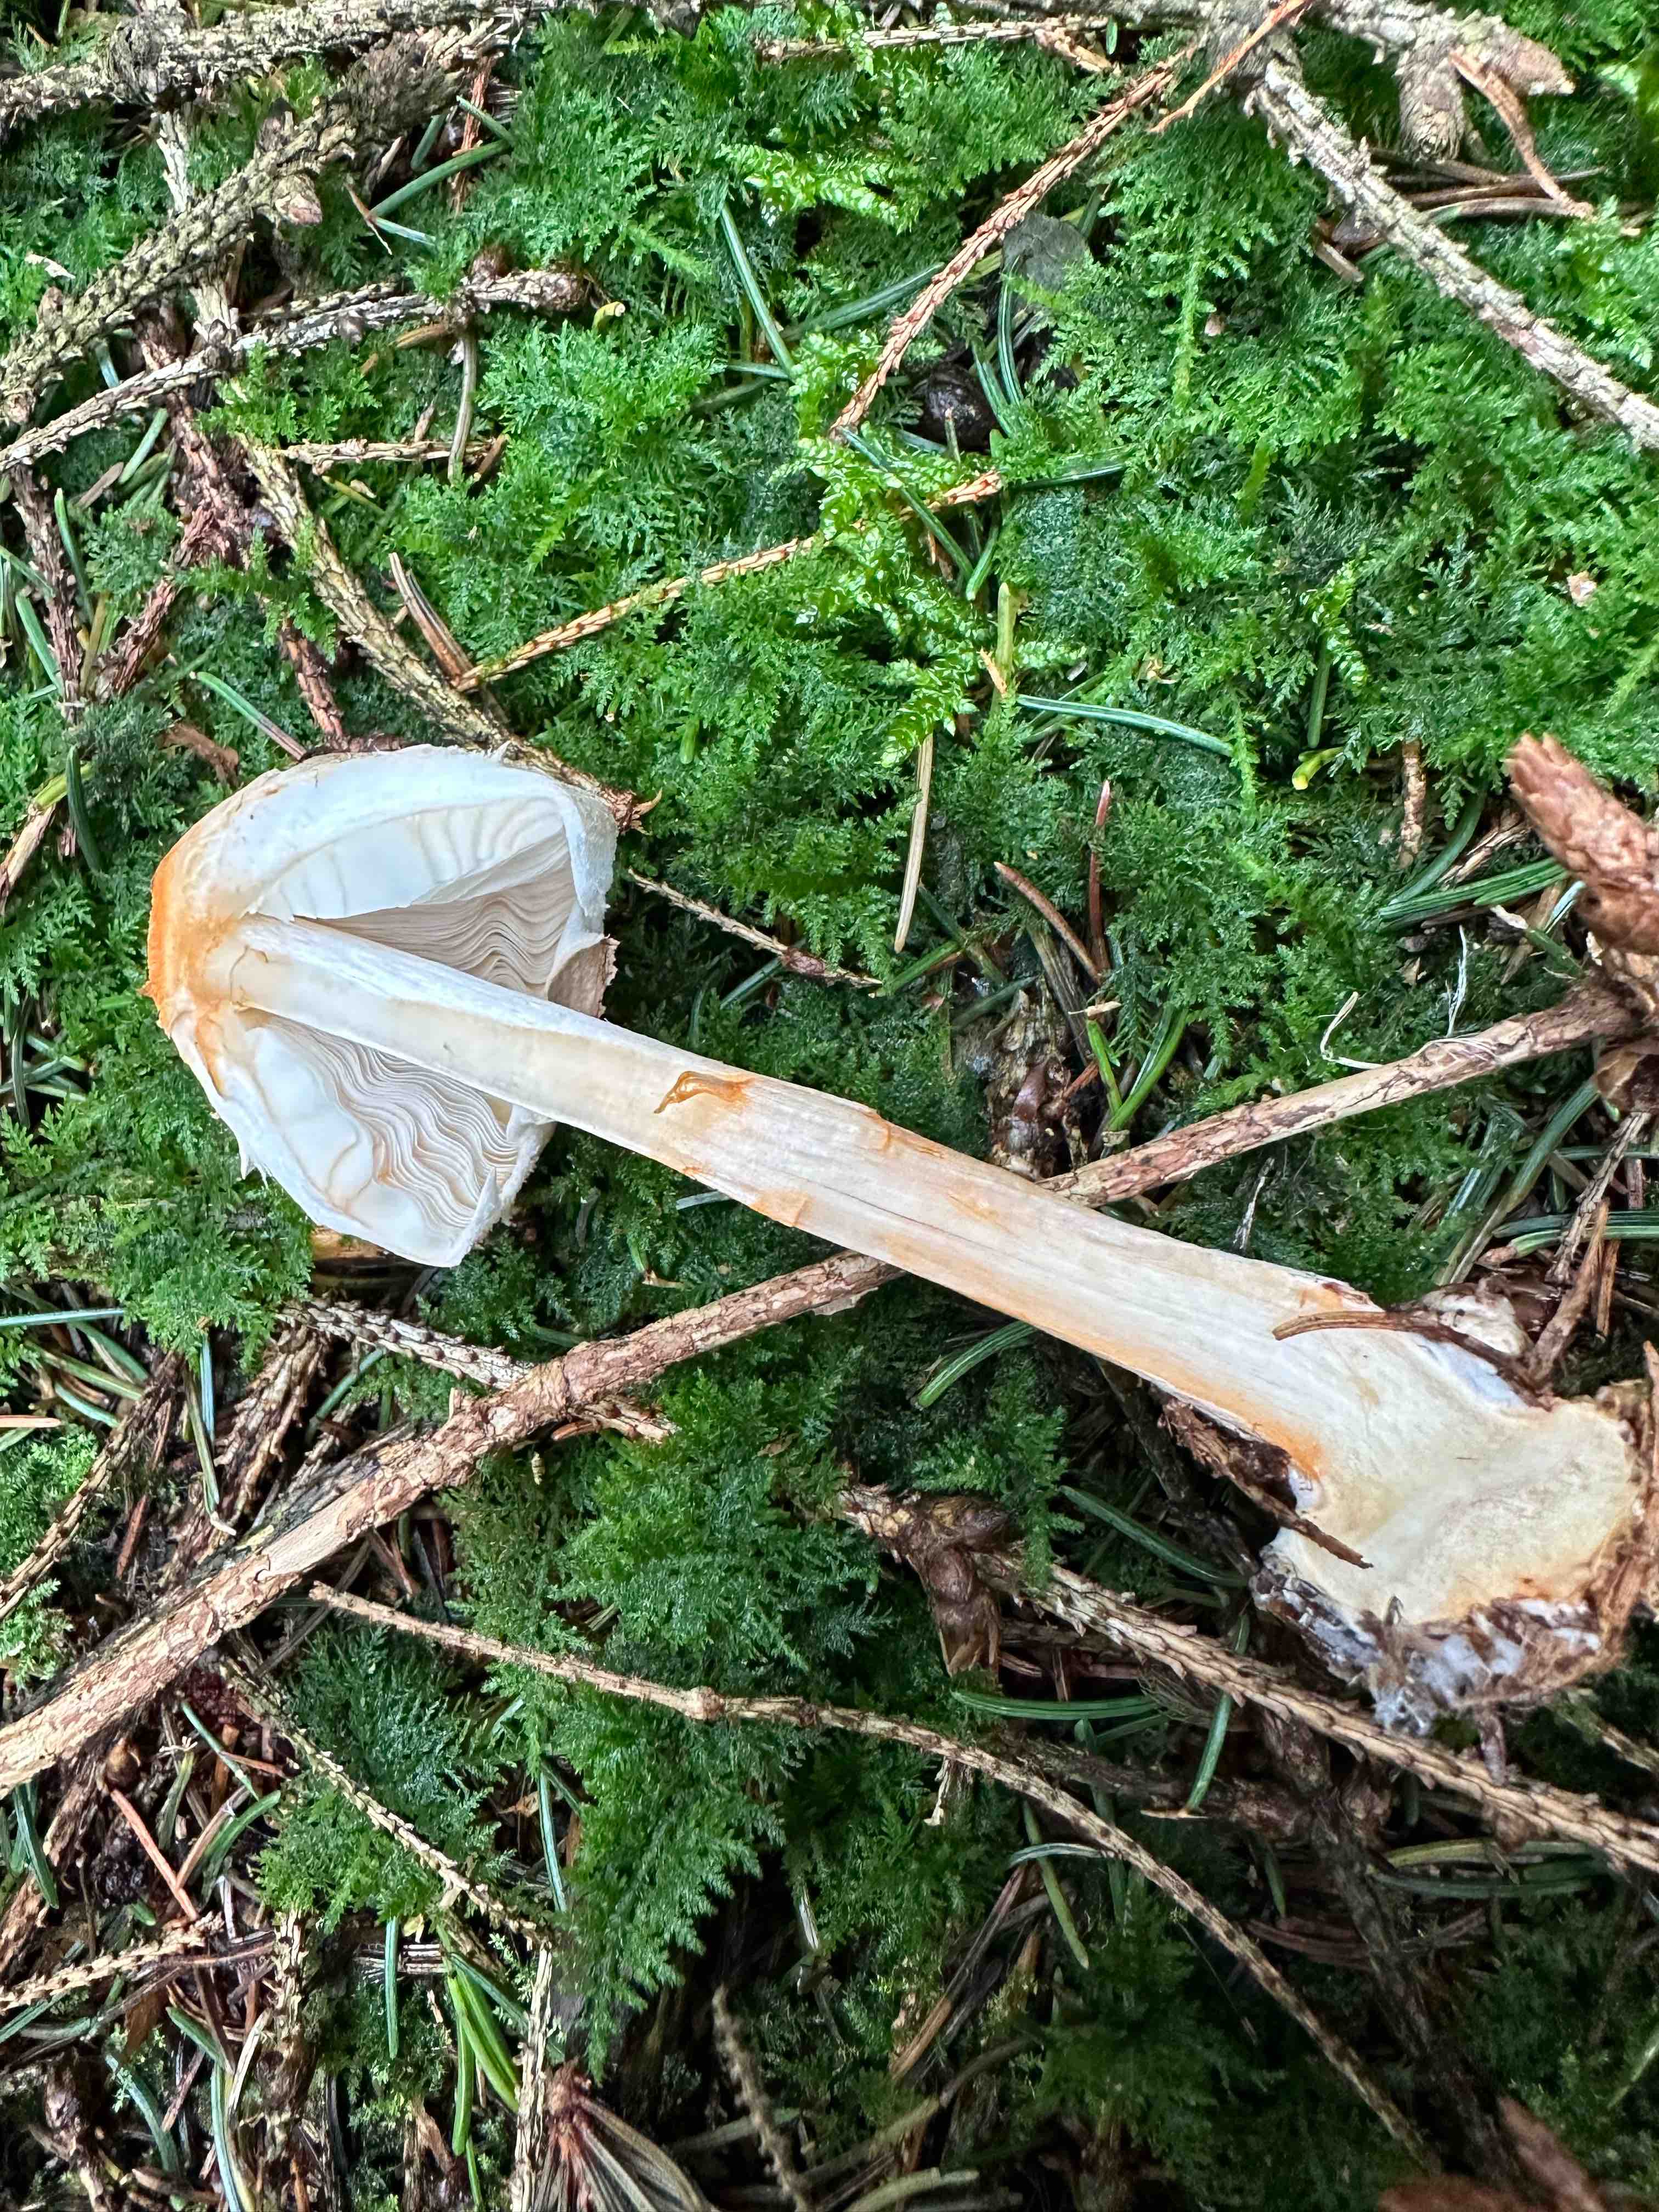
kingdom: Fungi
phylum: Basidiomycota
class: Agaricomycetes
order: Agaricales
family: Agaricaceae
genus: Chlorophyllum
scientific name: Chlorophyllum olivieri
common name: almindelig rabarberhat
